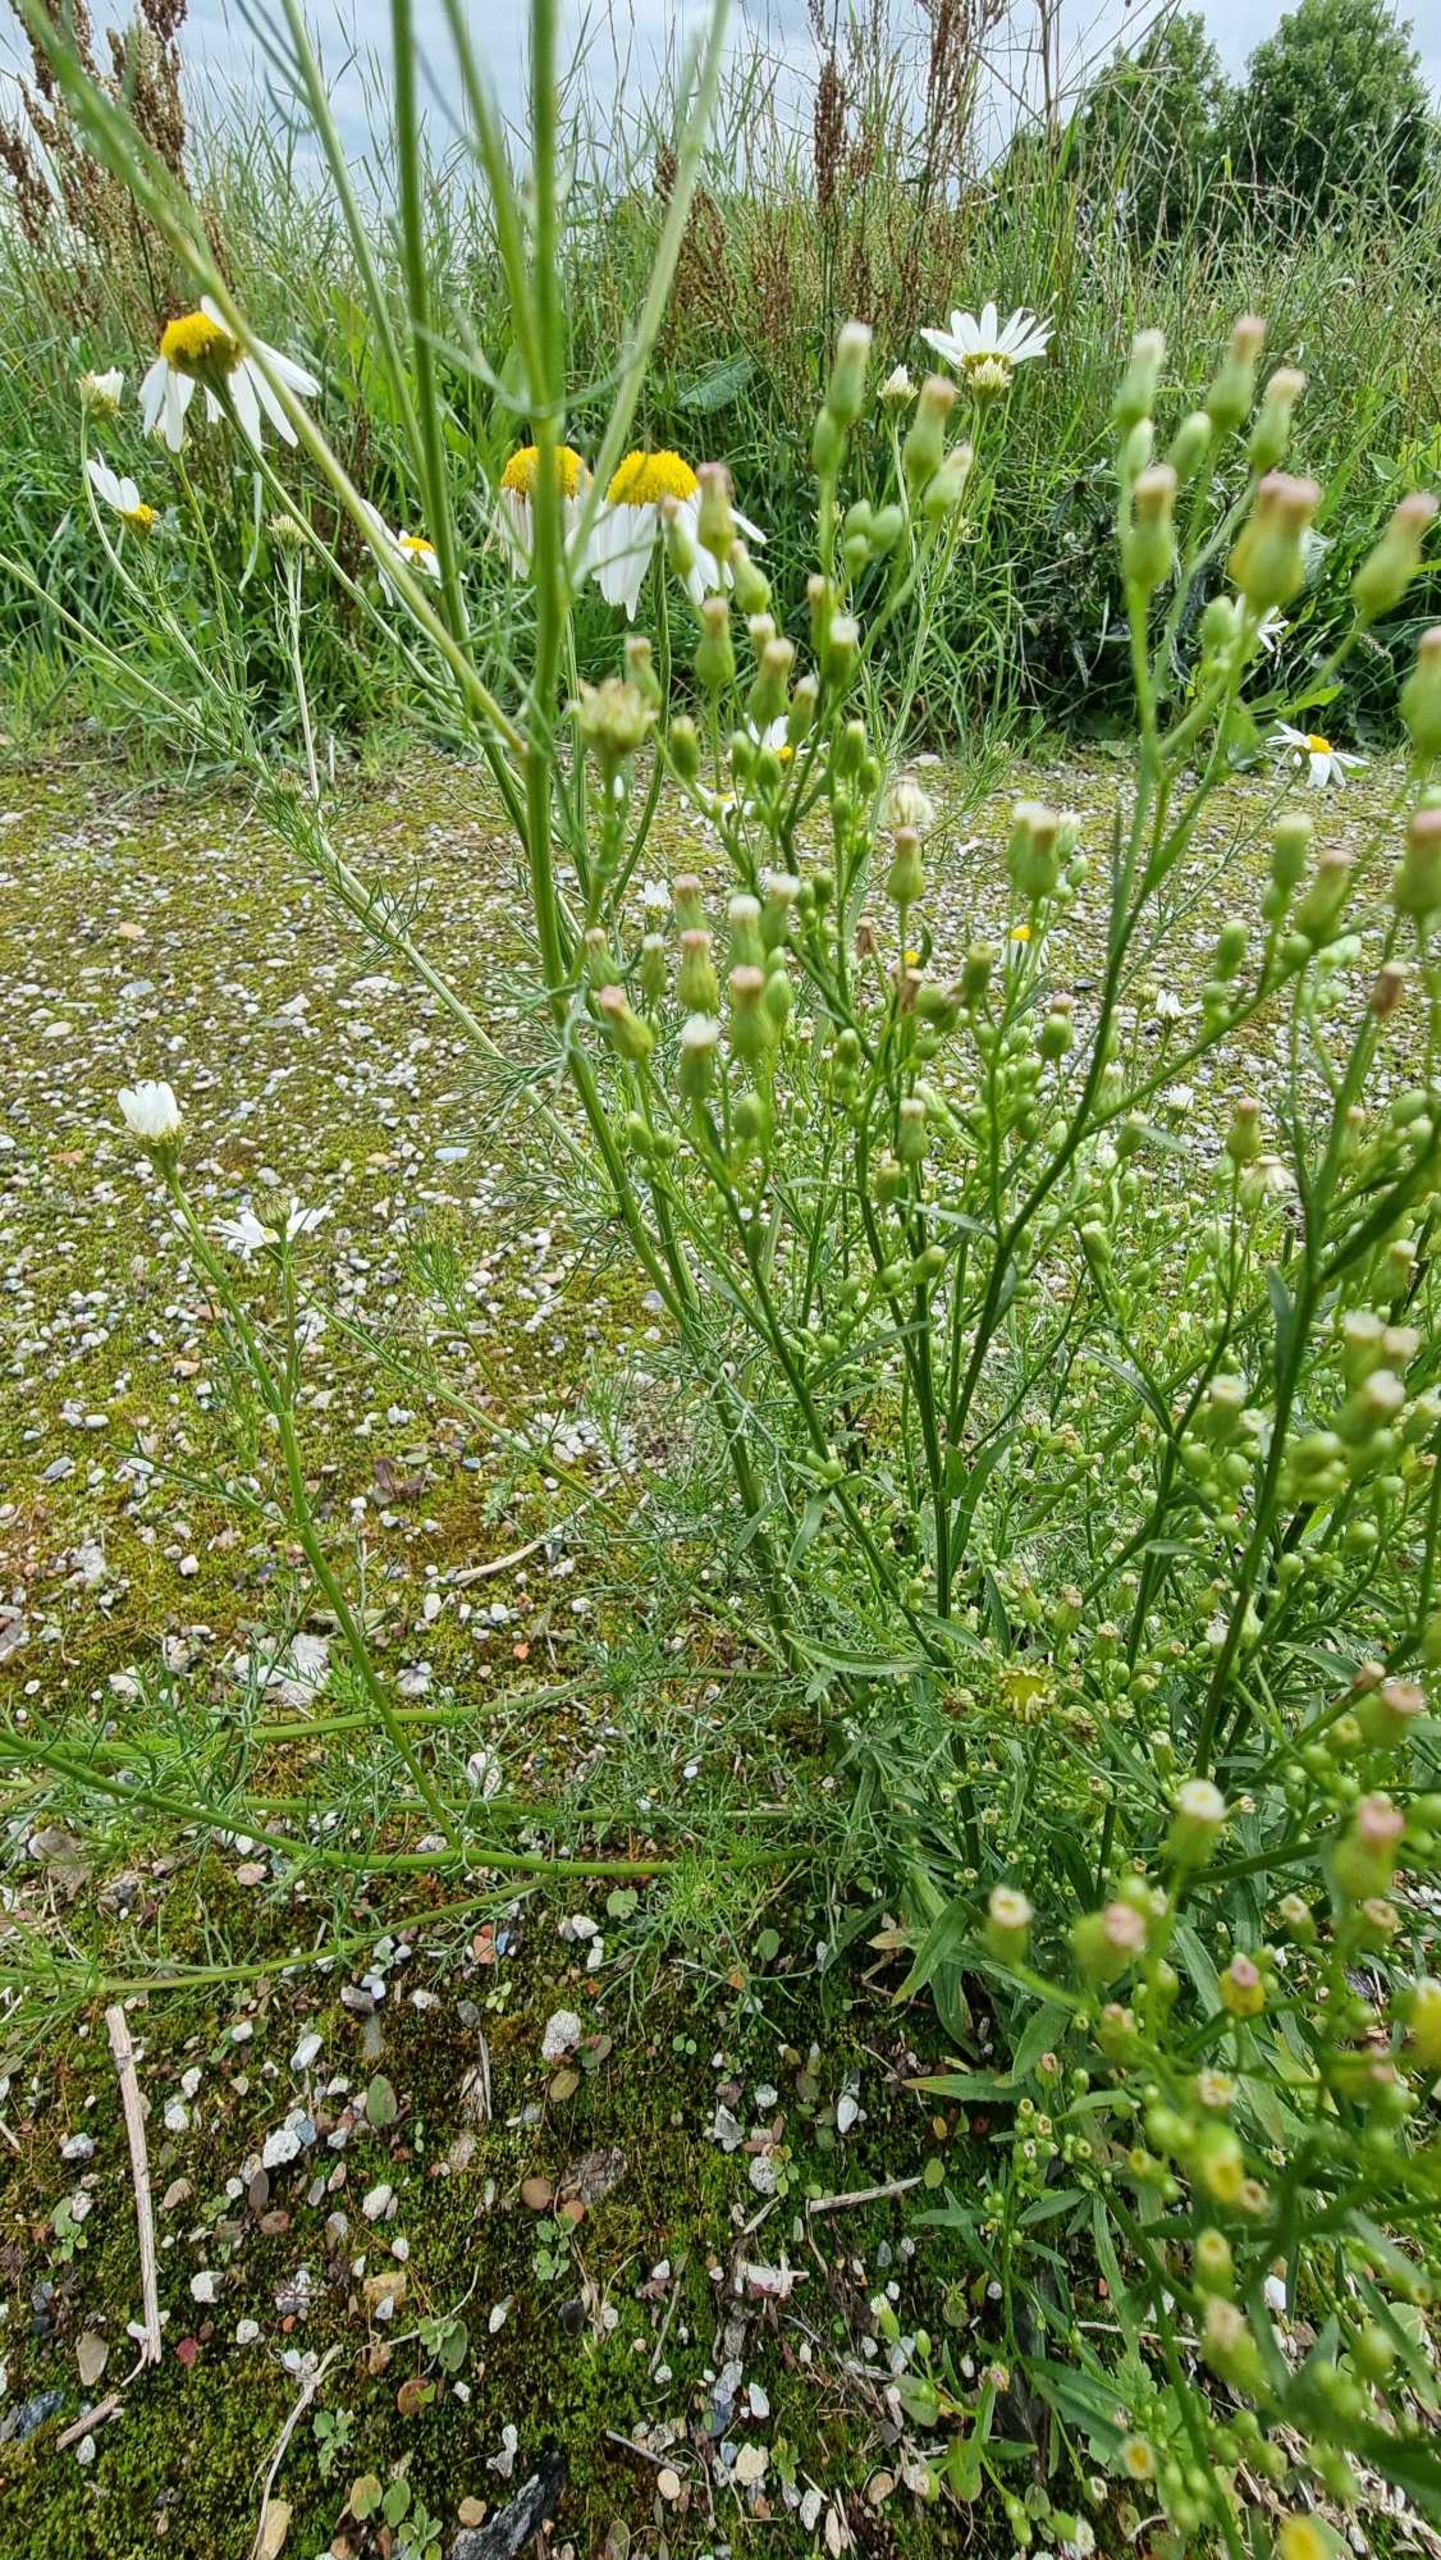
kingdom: Plantae
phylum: Tracheophyta
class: Magnoliopsida
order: Asterales
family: Asteraceae
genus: Tripleurospermum
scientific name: Tripleurospermum inodorum
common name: Lugtløs kamille
